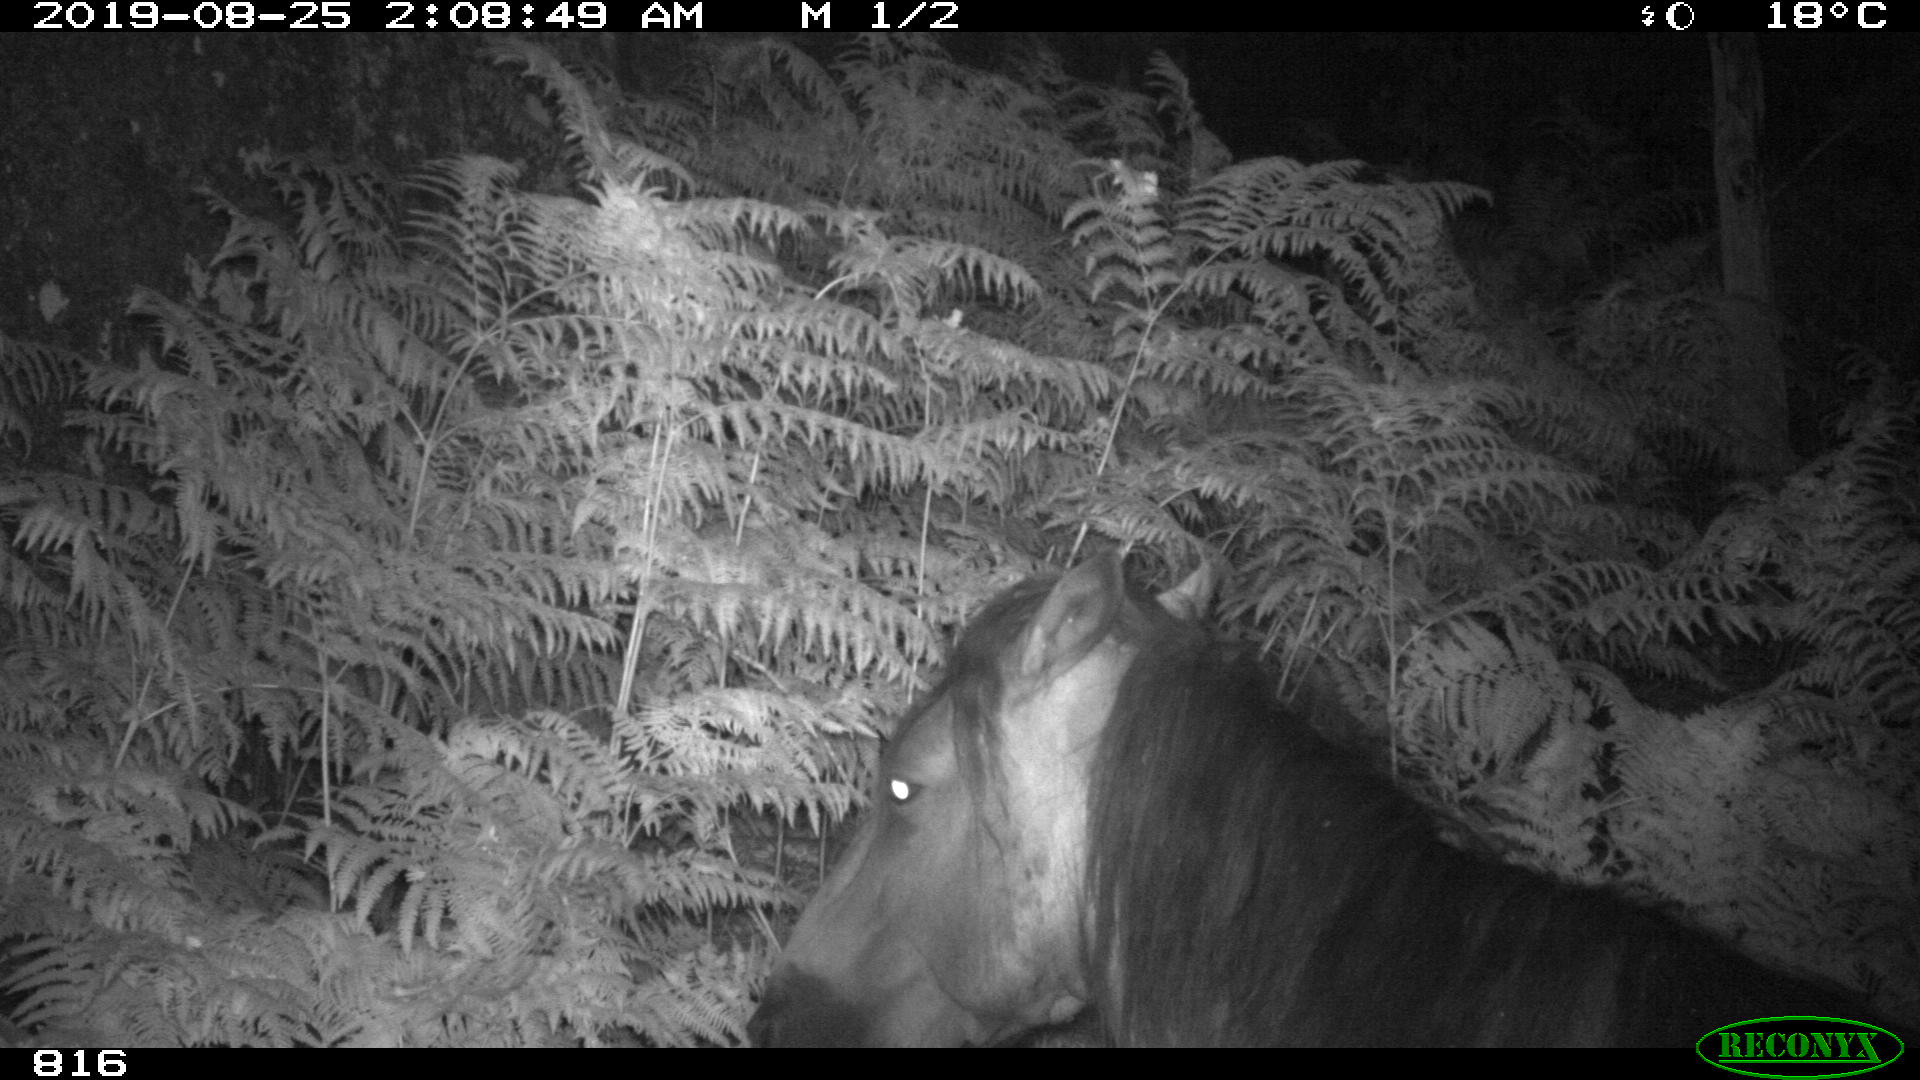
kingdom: Animalia
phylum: Chordata
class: Mammalia
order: Perissodactyla
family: Equidae
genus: Equus
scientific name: Equus caballus
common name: Horse
